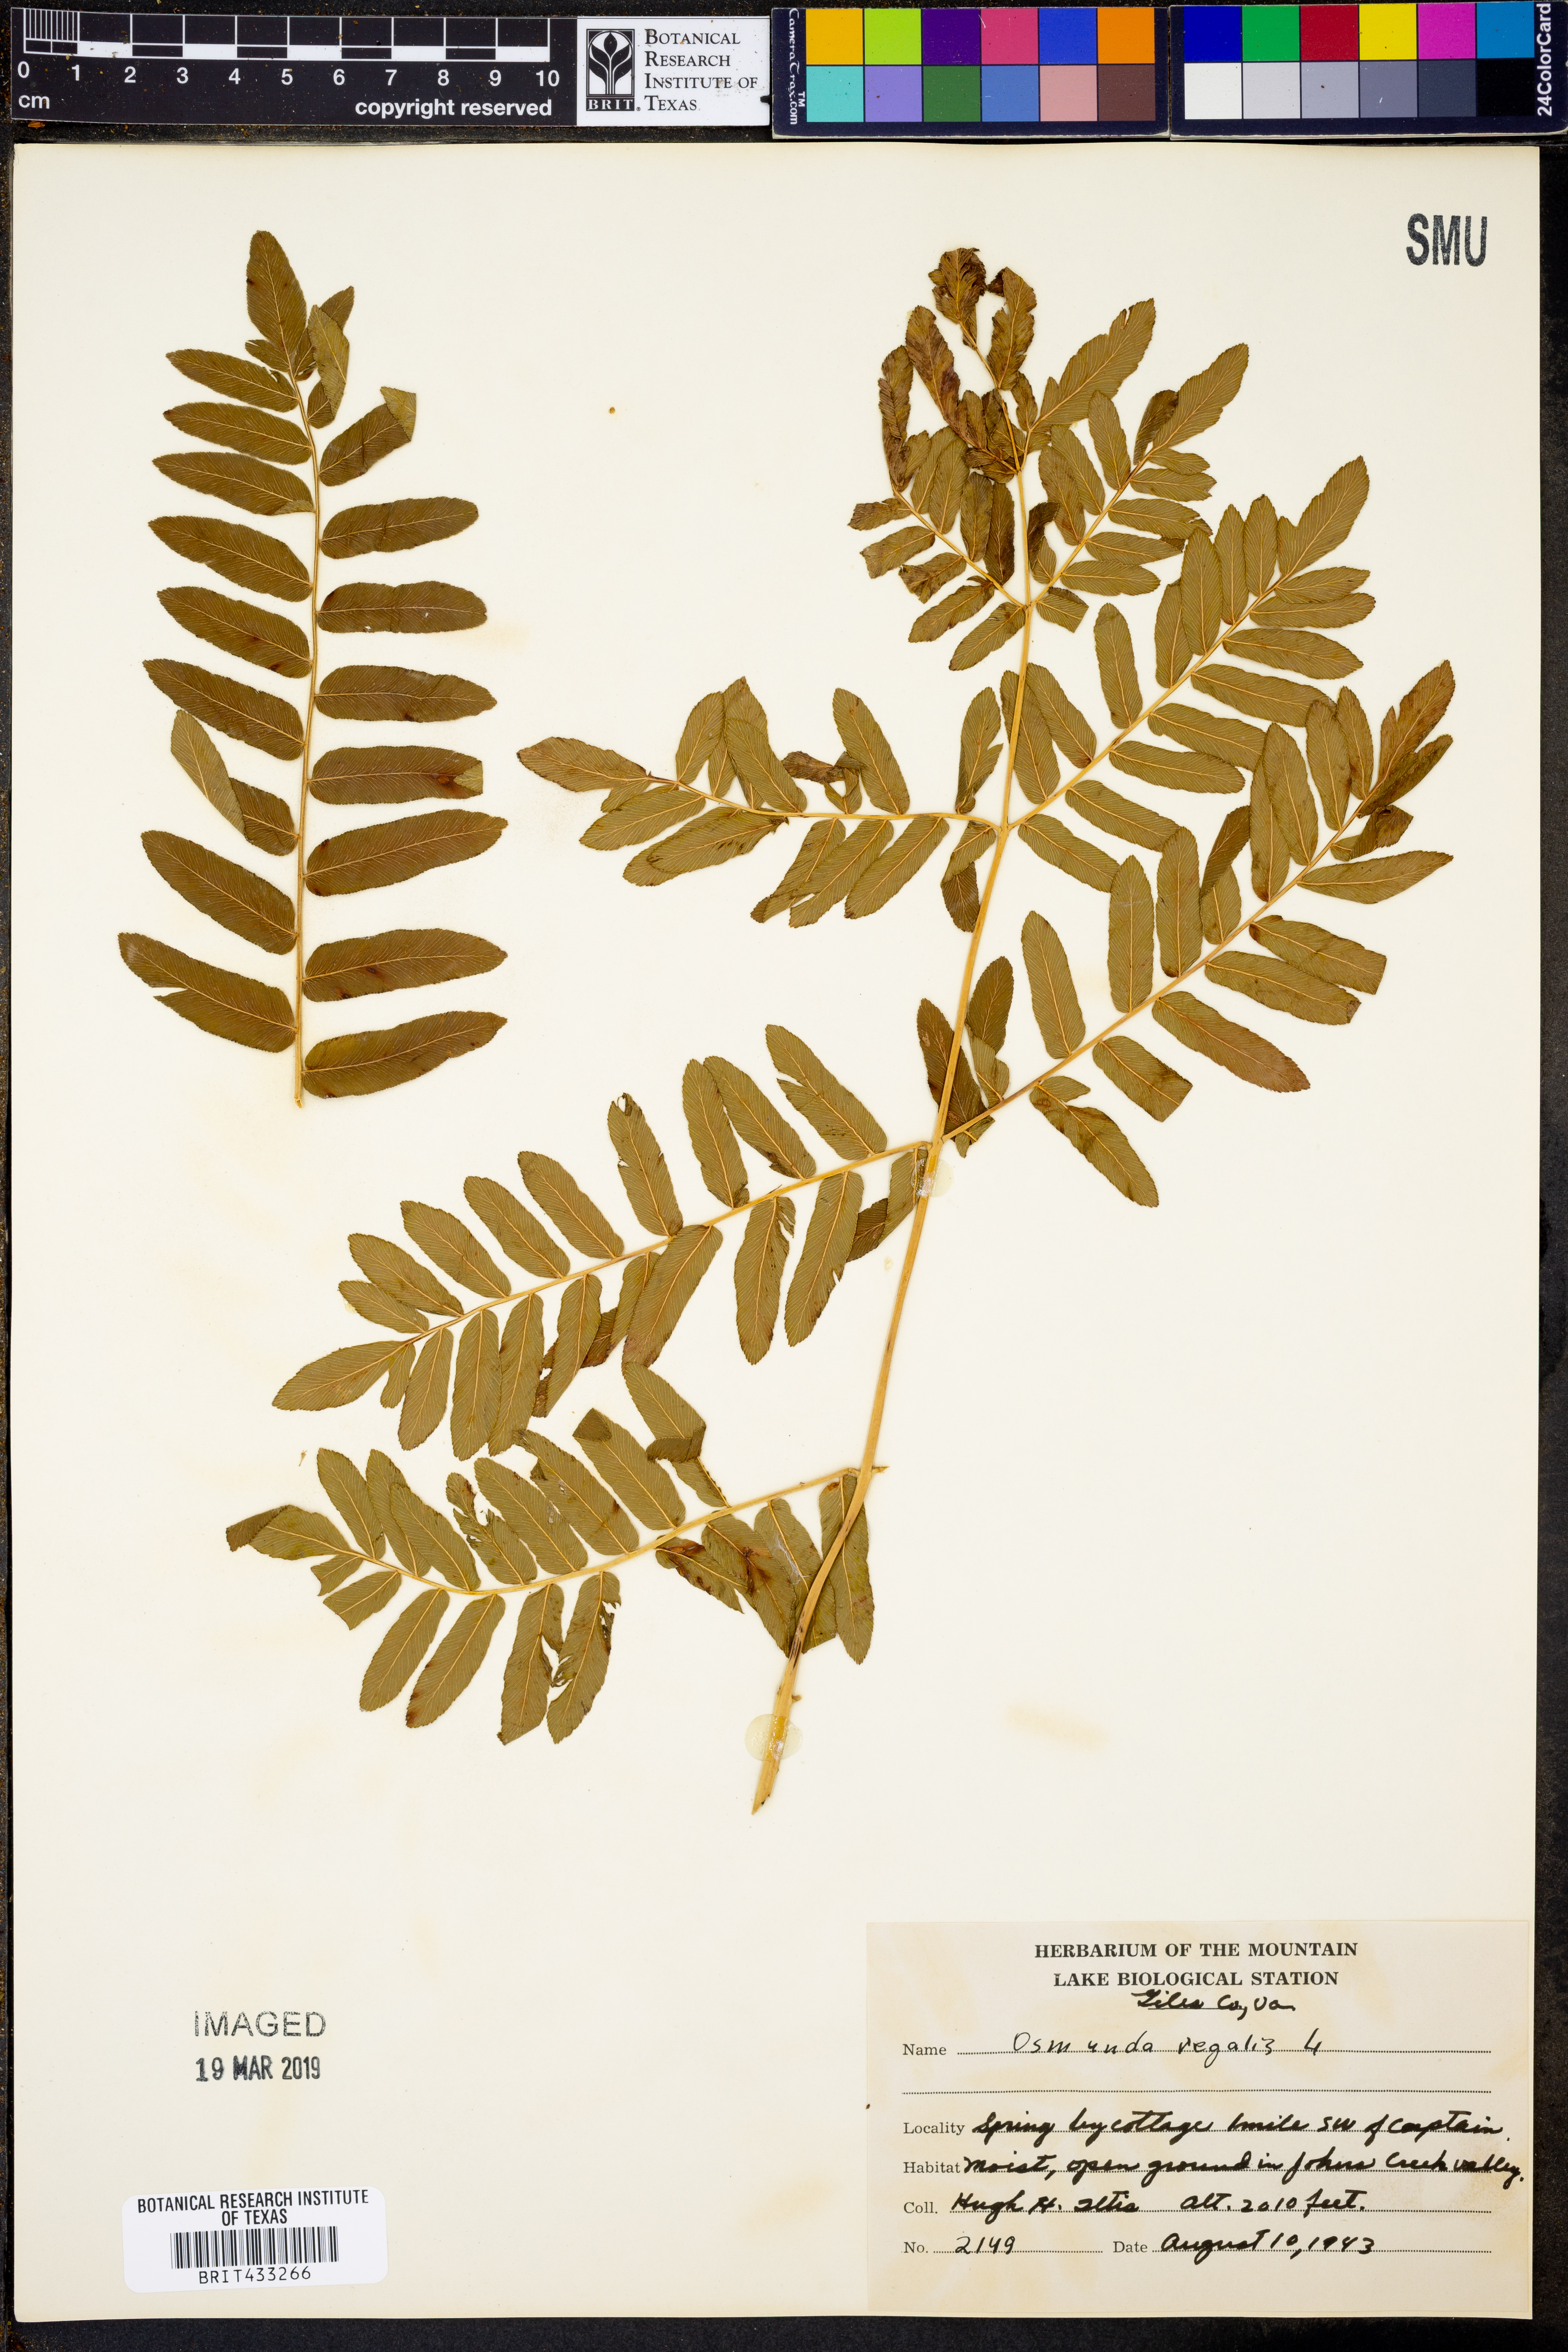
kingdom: Plantae
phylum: Tracheophyta
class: Polypodiopsida
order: Osmundales
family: Osmundaceae
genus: Osmunda
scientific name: Osmunda regalis
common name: Royal fern
